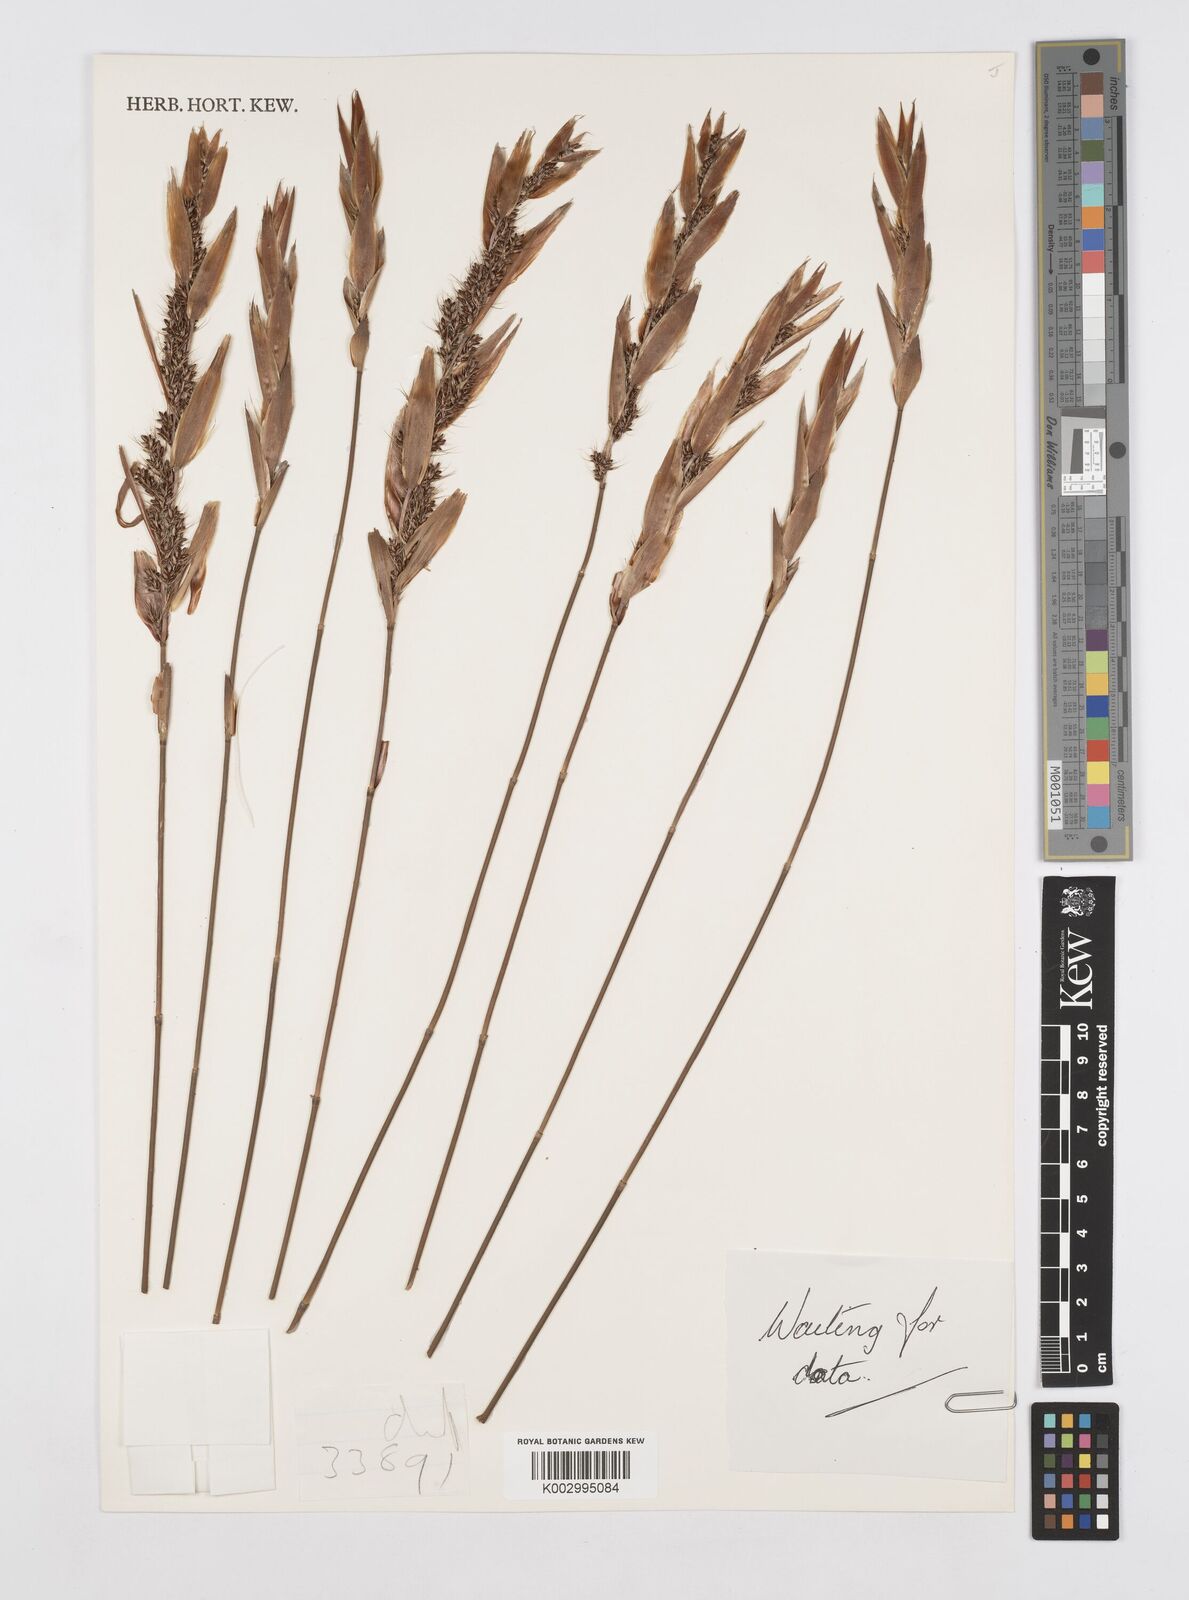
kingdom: Plantae
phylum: Tracheophyta
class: Liliopsida
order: Poales
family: Restionaceae
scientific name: Restionaceae
